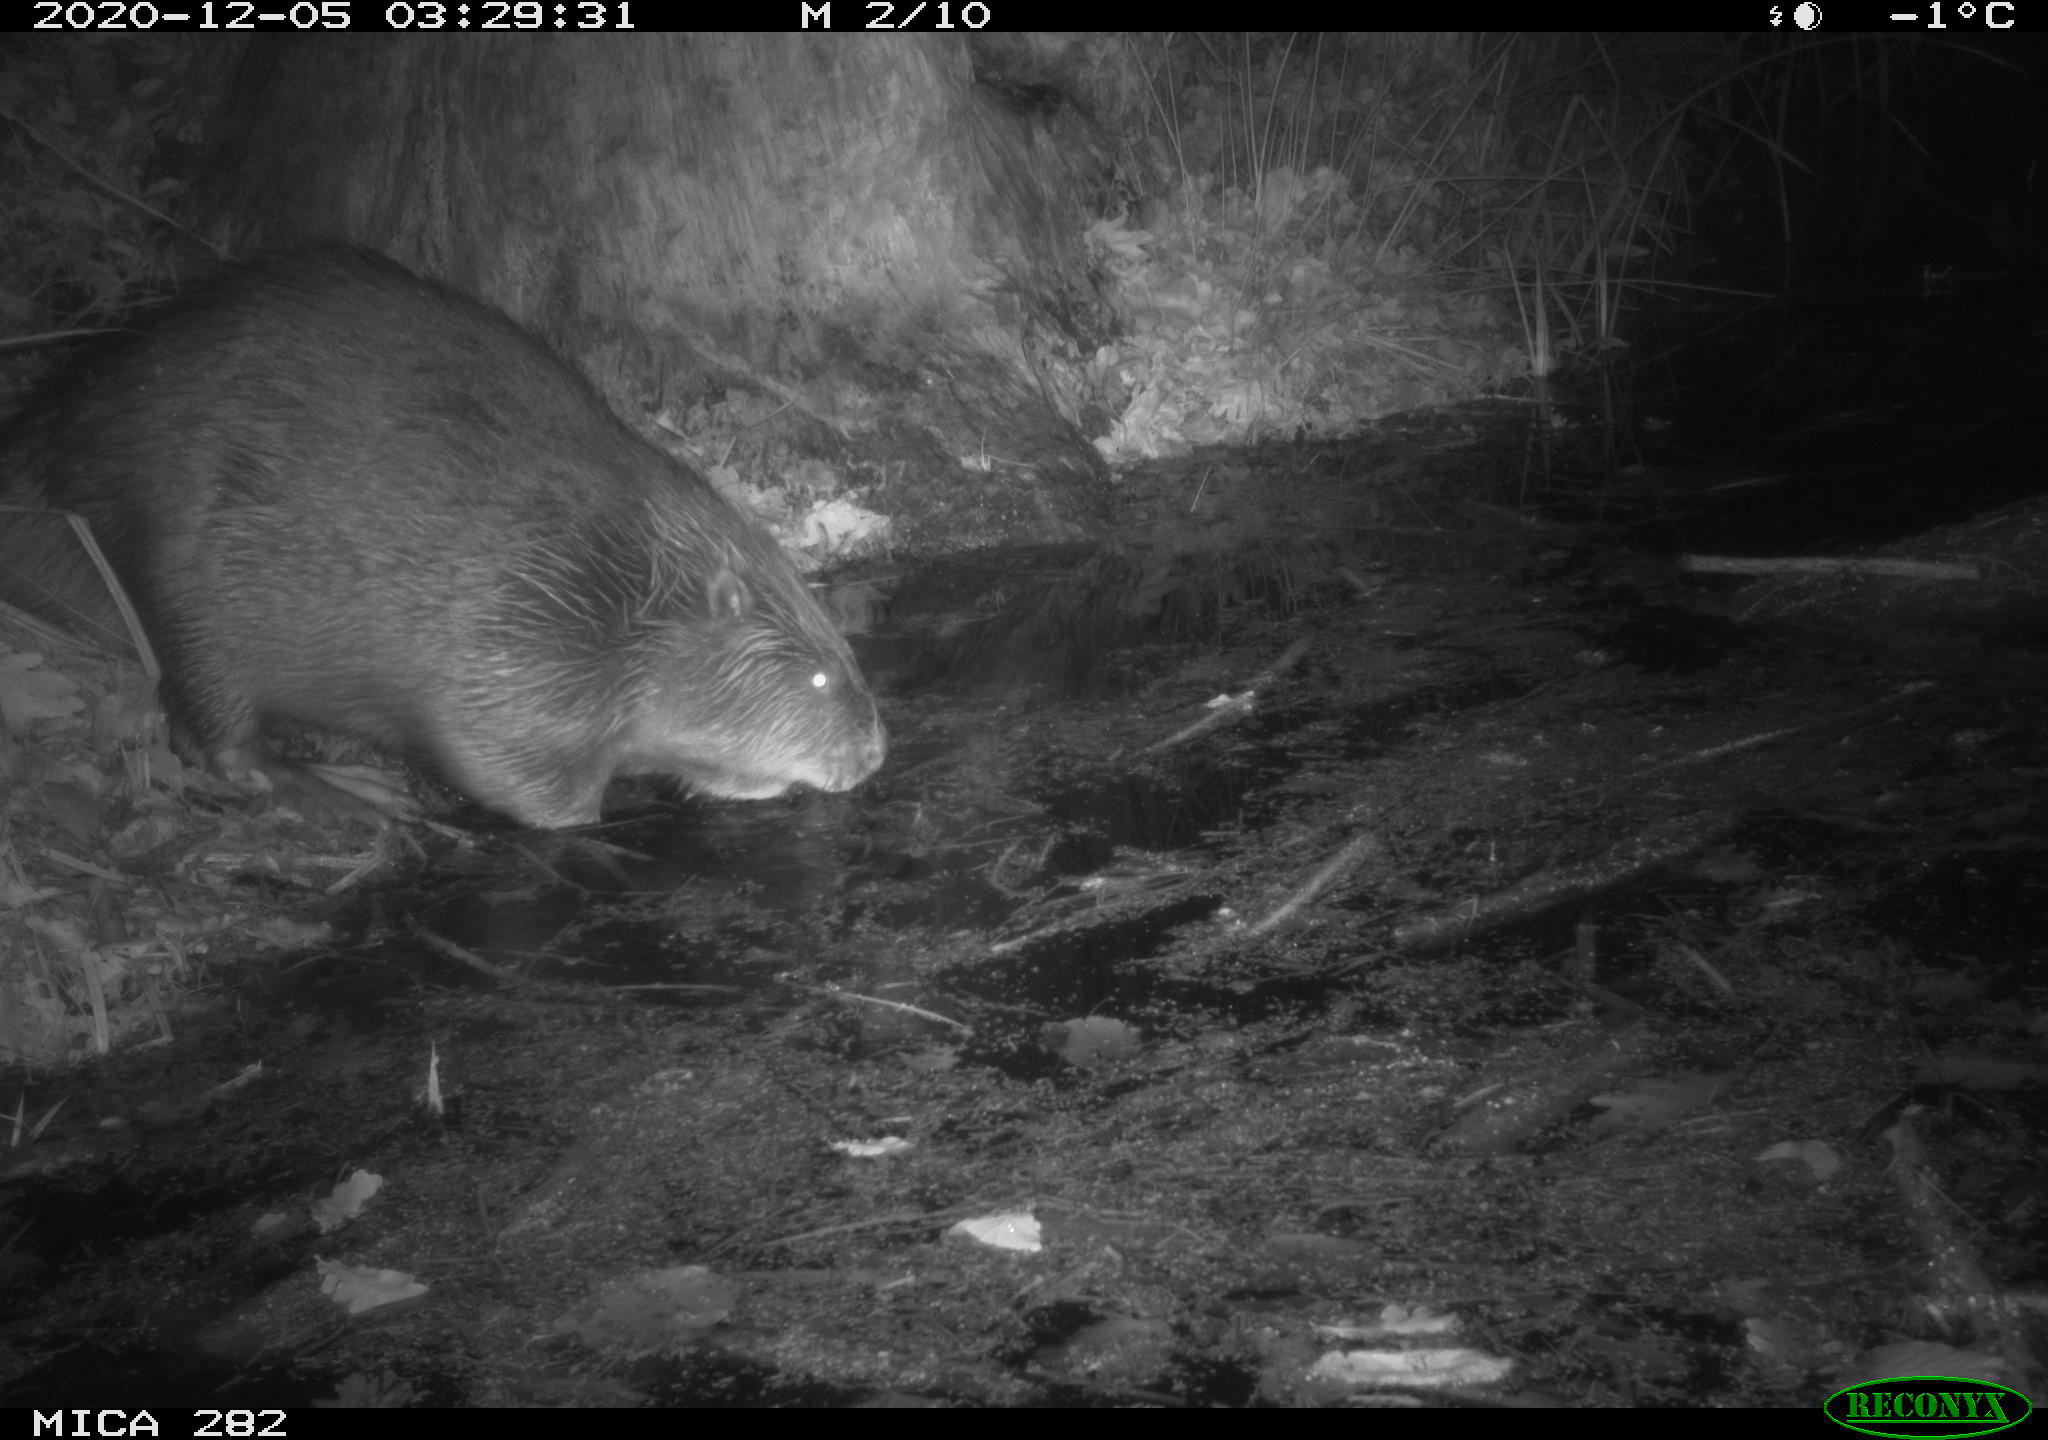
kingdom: Animalia
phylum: Chordata
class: Mammalia
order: Rodentia
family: Castoridae
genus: Castor
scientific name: Castor fiber
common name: Eurasian beaver
